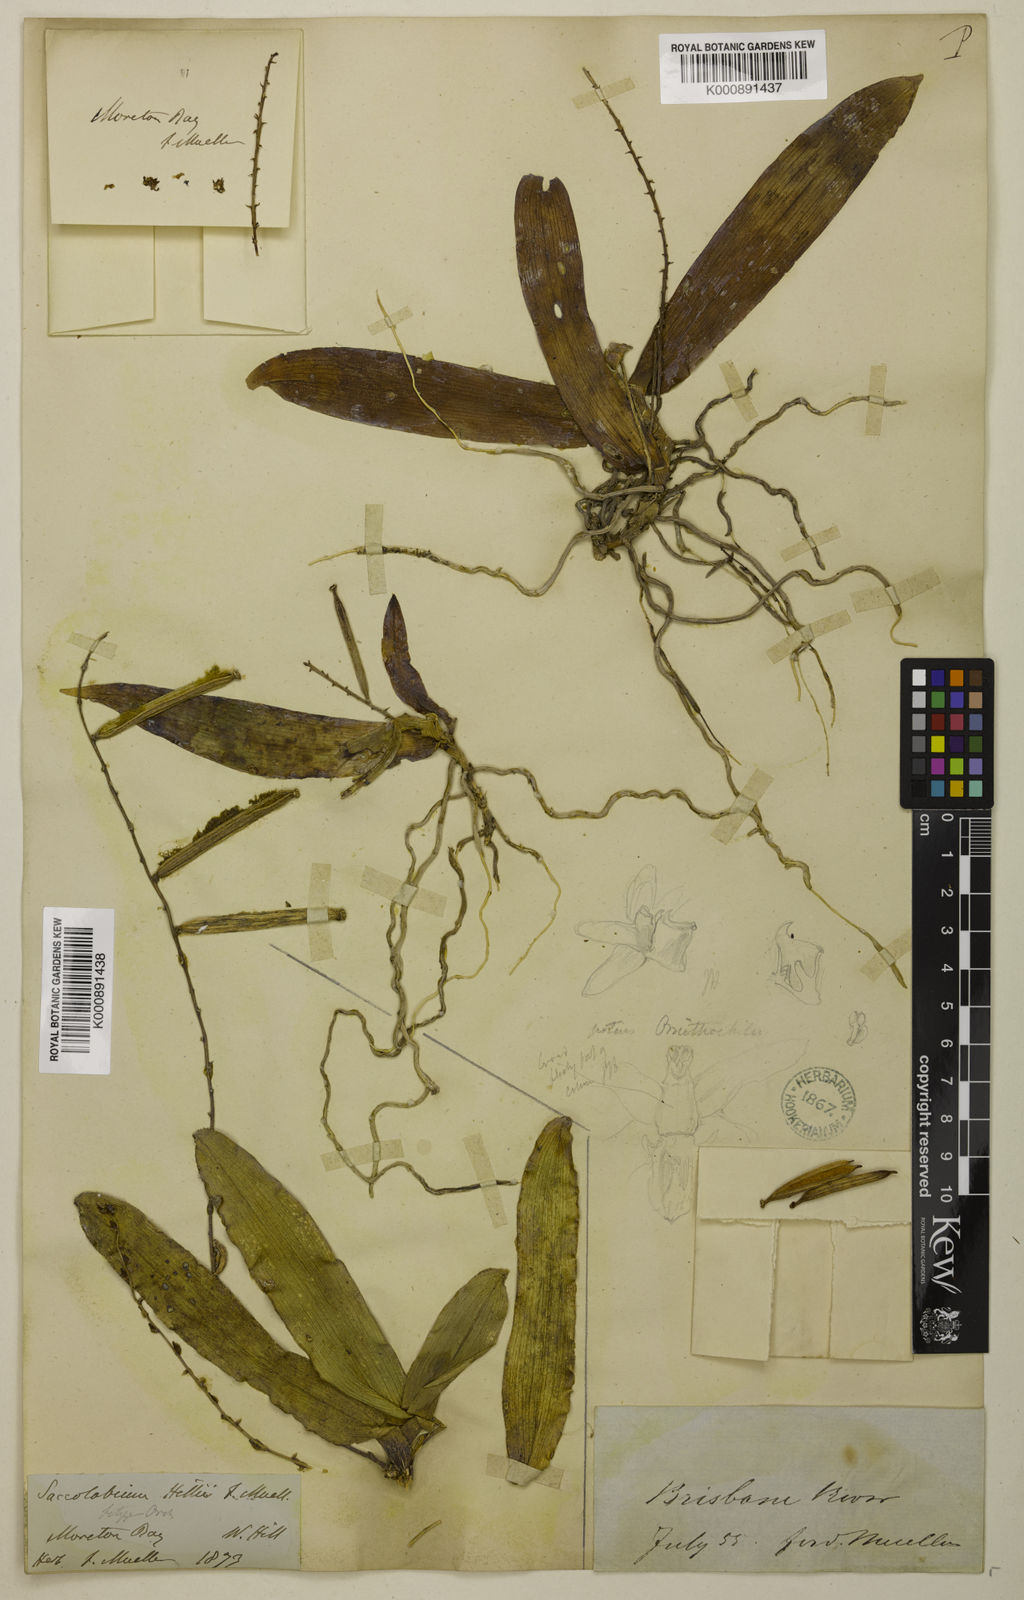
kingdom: Plantae
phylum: Tracheophyta
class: Liliopsida
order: Asparagales
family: Orchidaceae
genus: Peristeranthus
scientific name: Peristeranthus hillii
